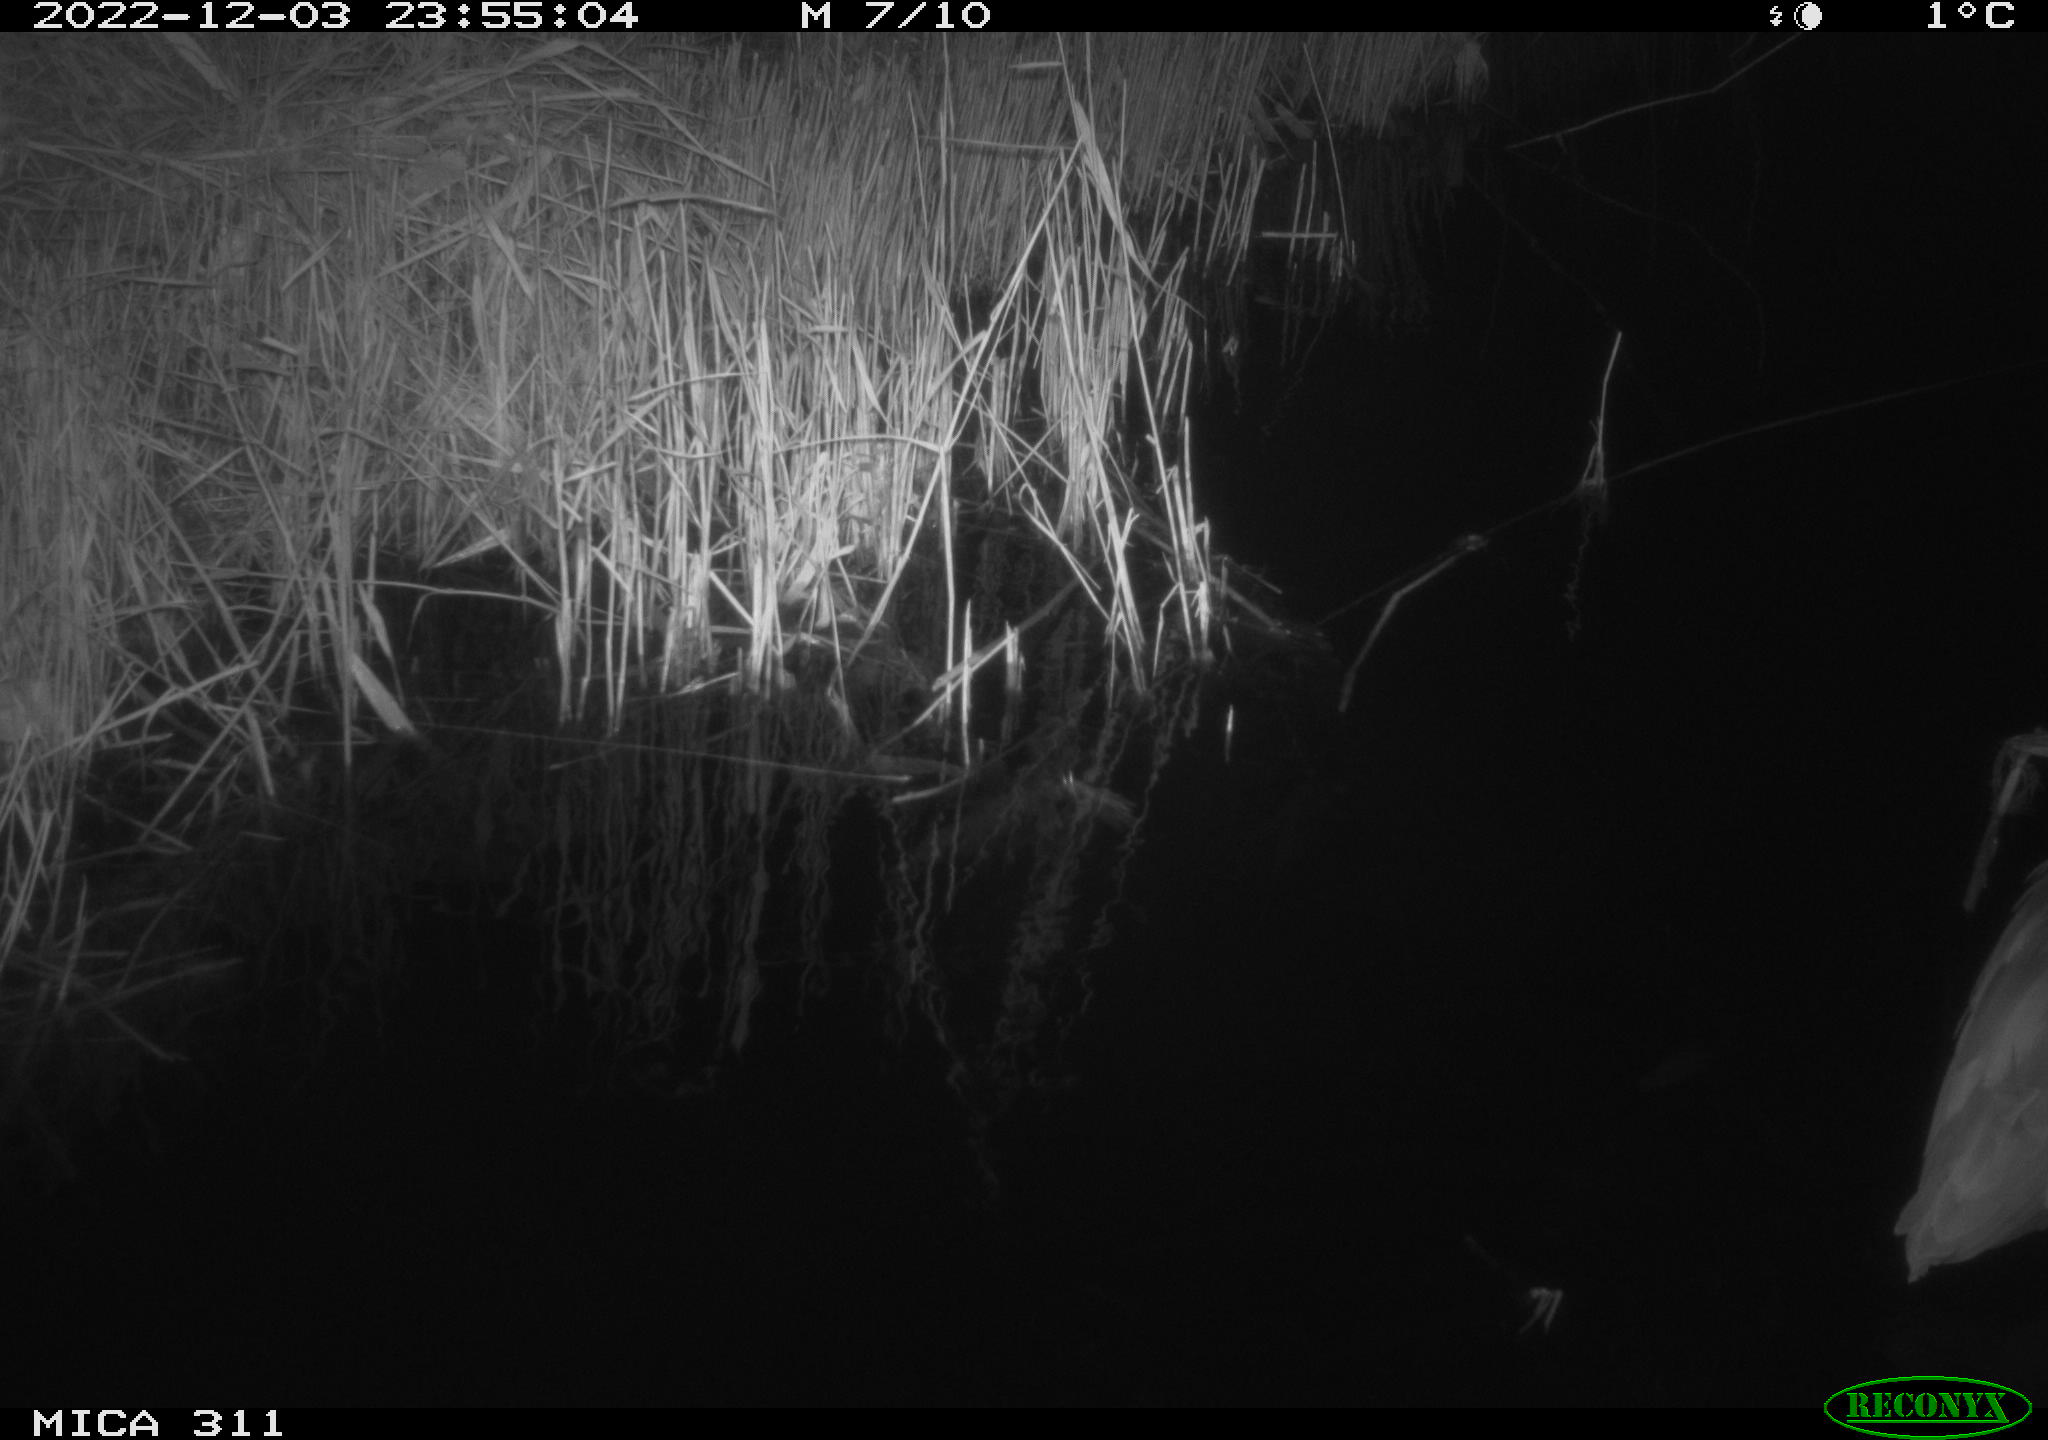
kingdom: Animalia
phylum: Chordata
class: Aves
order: Pelecaniformes
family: Ardeidae
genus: Ardea
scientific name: Ardea cinerea
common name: Grey heron
